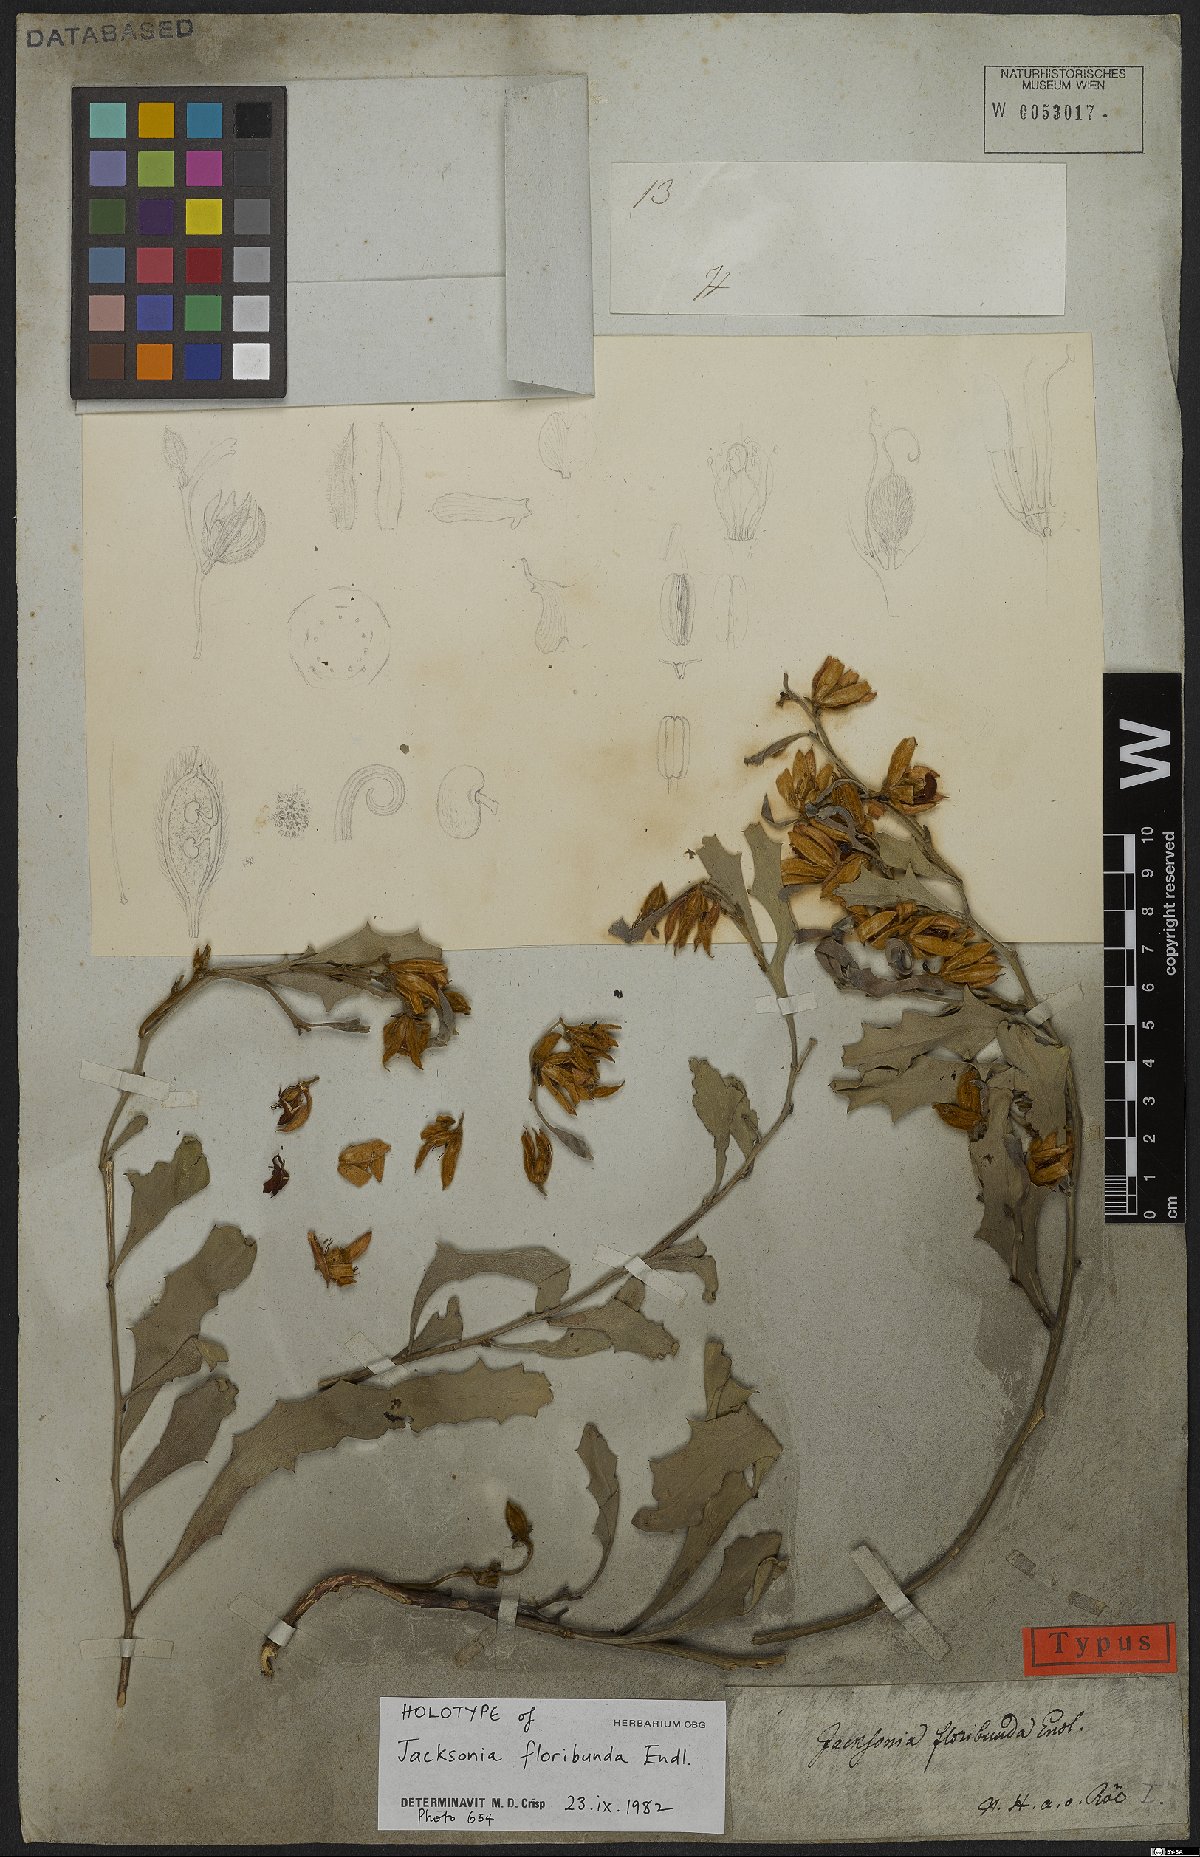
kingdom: Plantae
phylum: Tracheophyta
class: Magnoliopsida
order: Fabales
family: Fabaceae
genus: Jacksonia
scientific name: Jacksonia floribunda
